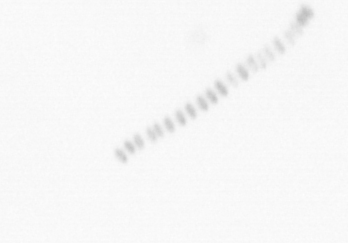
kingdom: Chromista
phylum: Ochrophyta
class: Bacillariophyceae
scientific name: Bacillariophyceae
